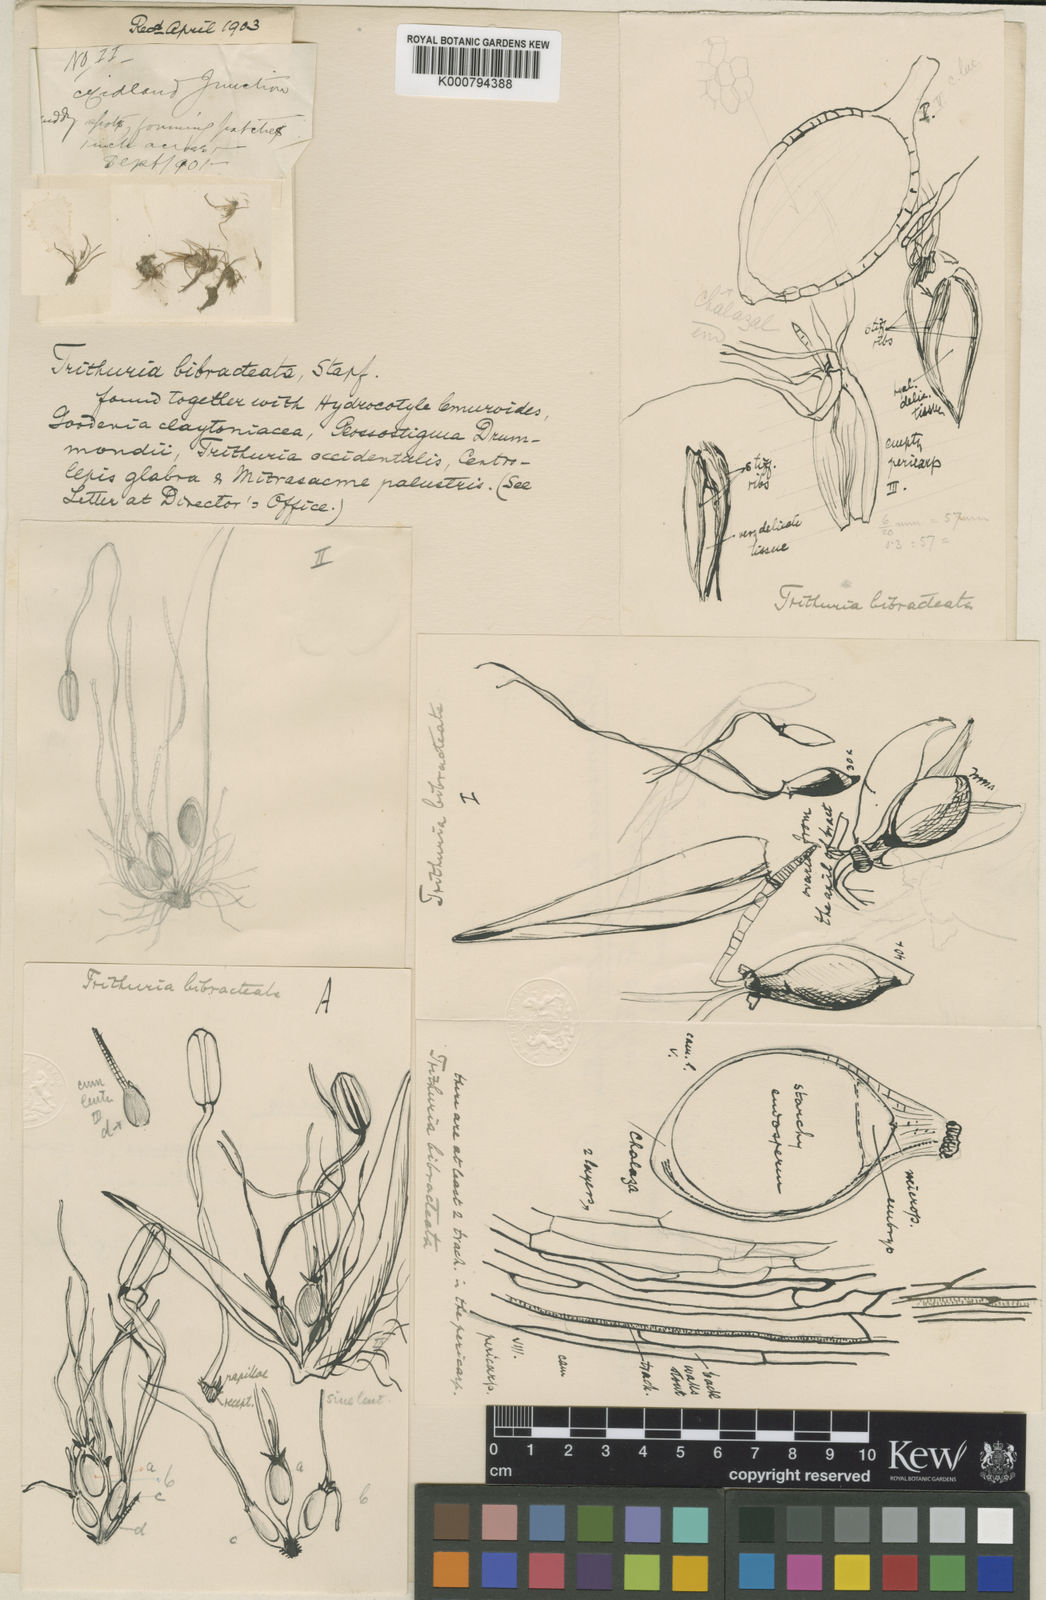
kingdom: Plantae
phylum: Tracheophyta
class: Magnoliopsida
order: Nymphaeales
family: Hydatellaceae
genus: Trithuria
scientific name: Trithuria bibracteata
